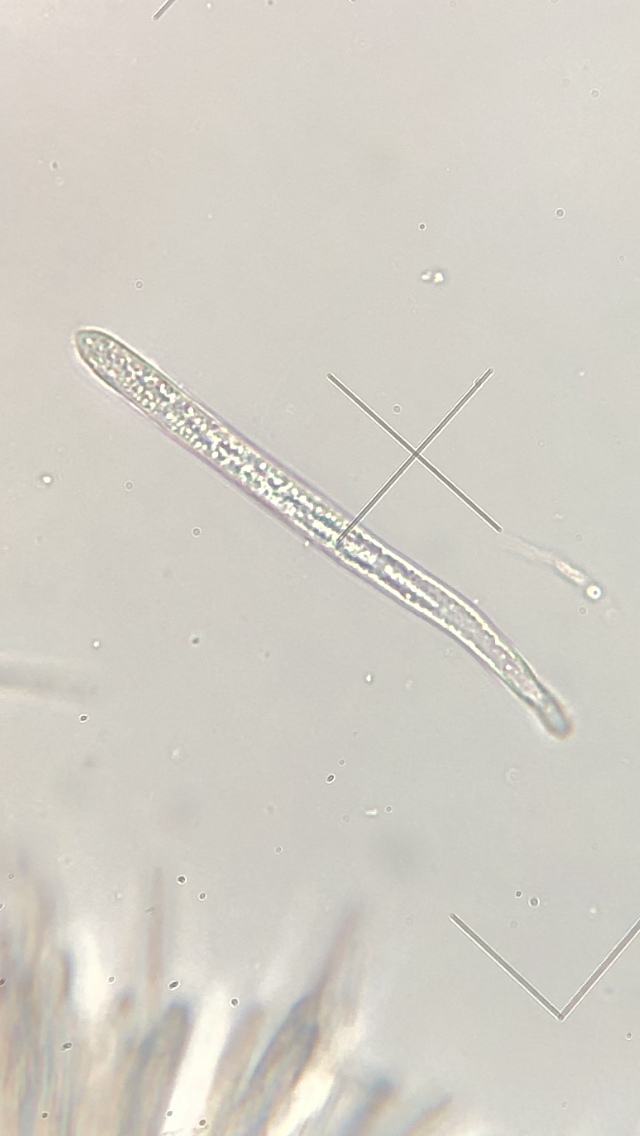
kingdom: Fungi
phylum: Ascomycota
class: Leotiomycetes
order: Helotiales
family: Lachnaceae
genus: Lachnum
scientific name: Lachnum sulphureum
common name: svovlhåret frynseskive
